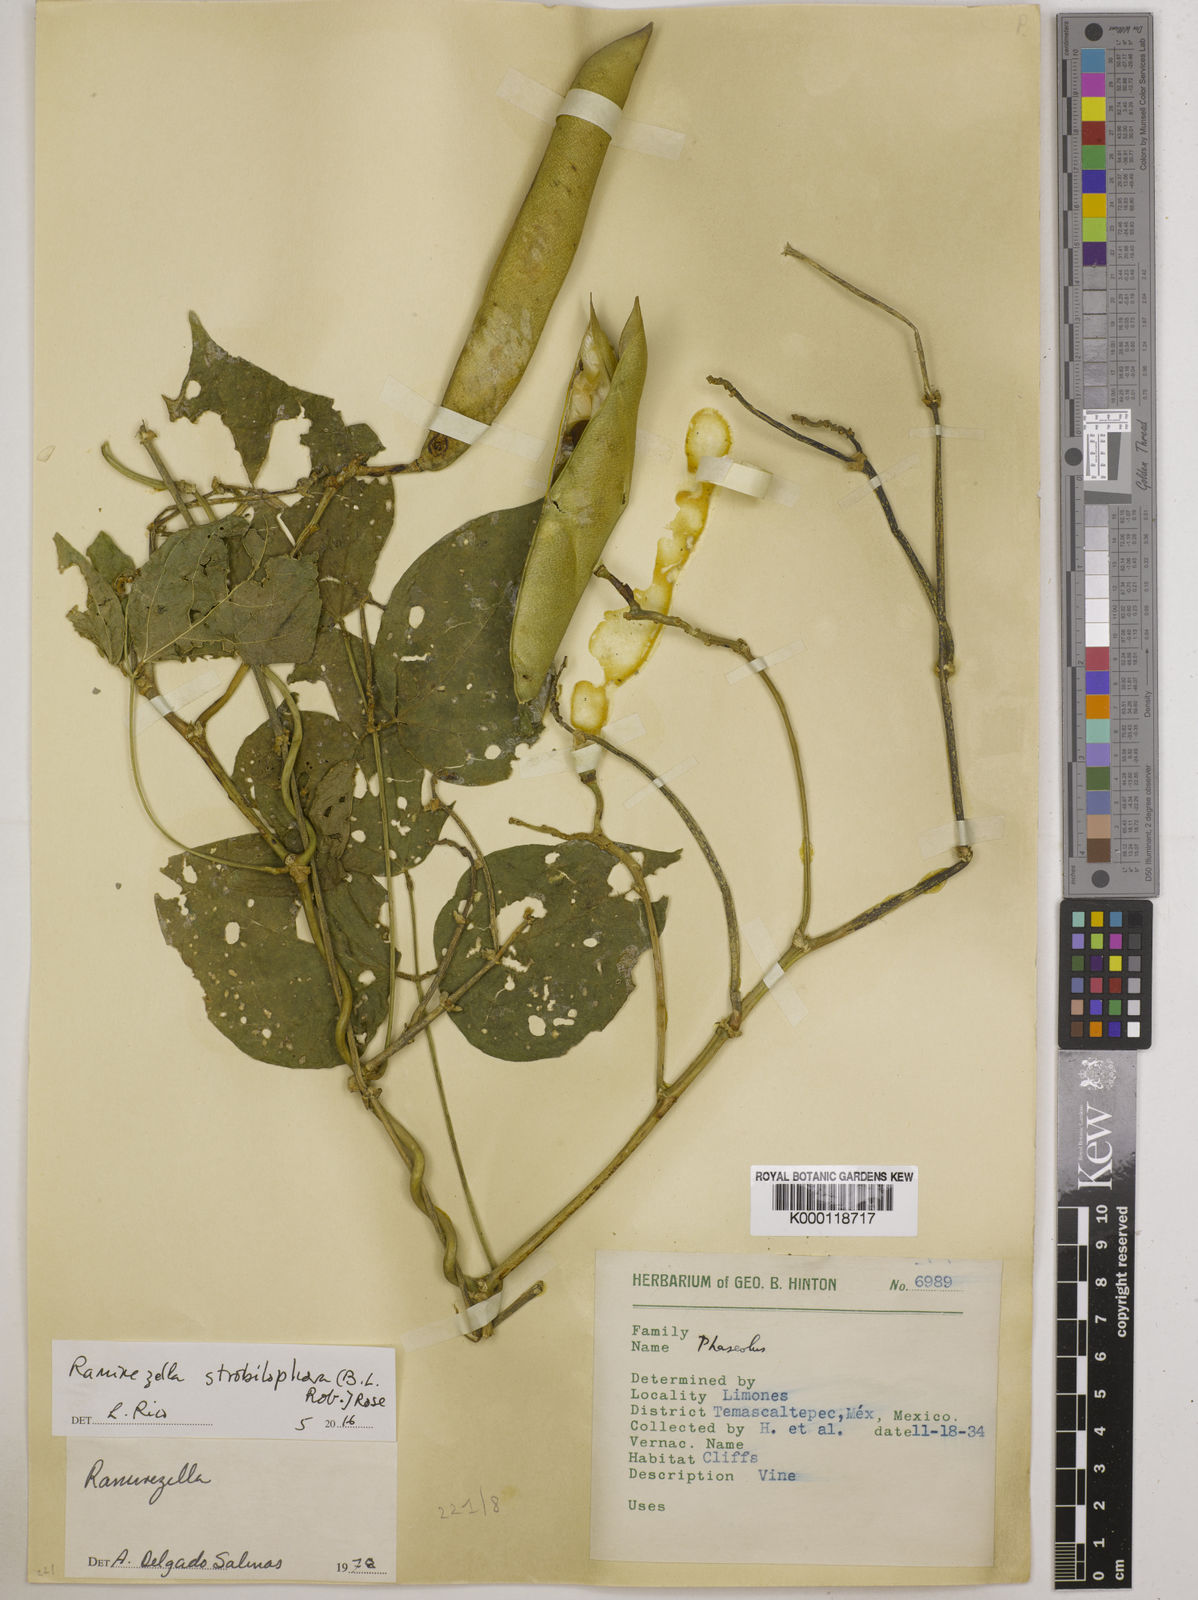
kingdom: Plantae
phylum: Tracheophyta
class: Magnoliopsida
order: Fabales
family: Fabaceae
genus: Ramirezella
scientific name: Ramirezella strobilophora
